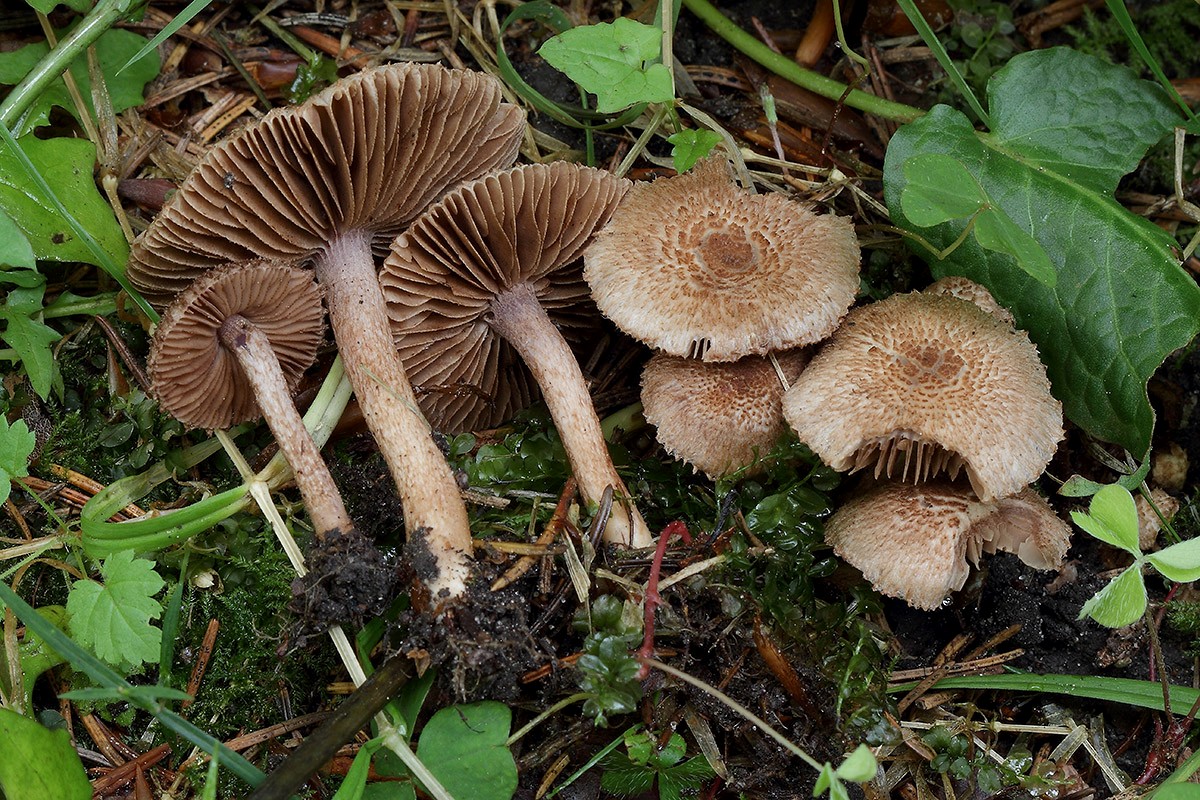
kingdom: Fungi
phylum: Basidiomycota
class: Agaricomycetes
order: Agaricales
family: Inocybaceae
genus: Inocybe
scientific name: Inocybe cincinnata
